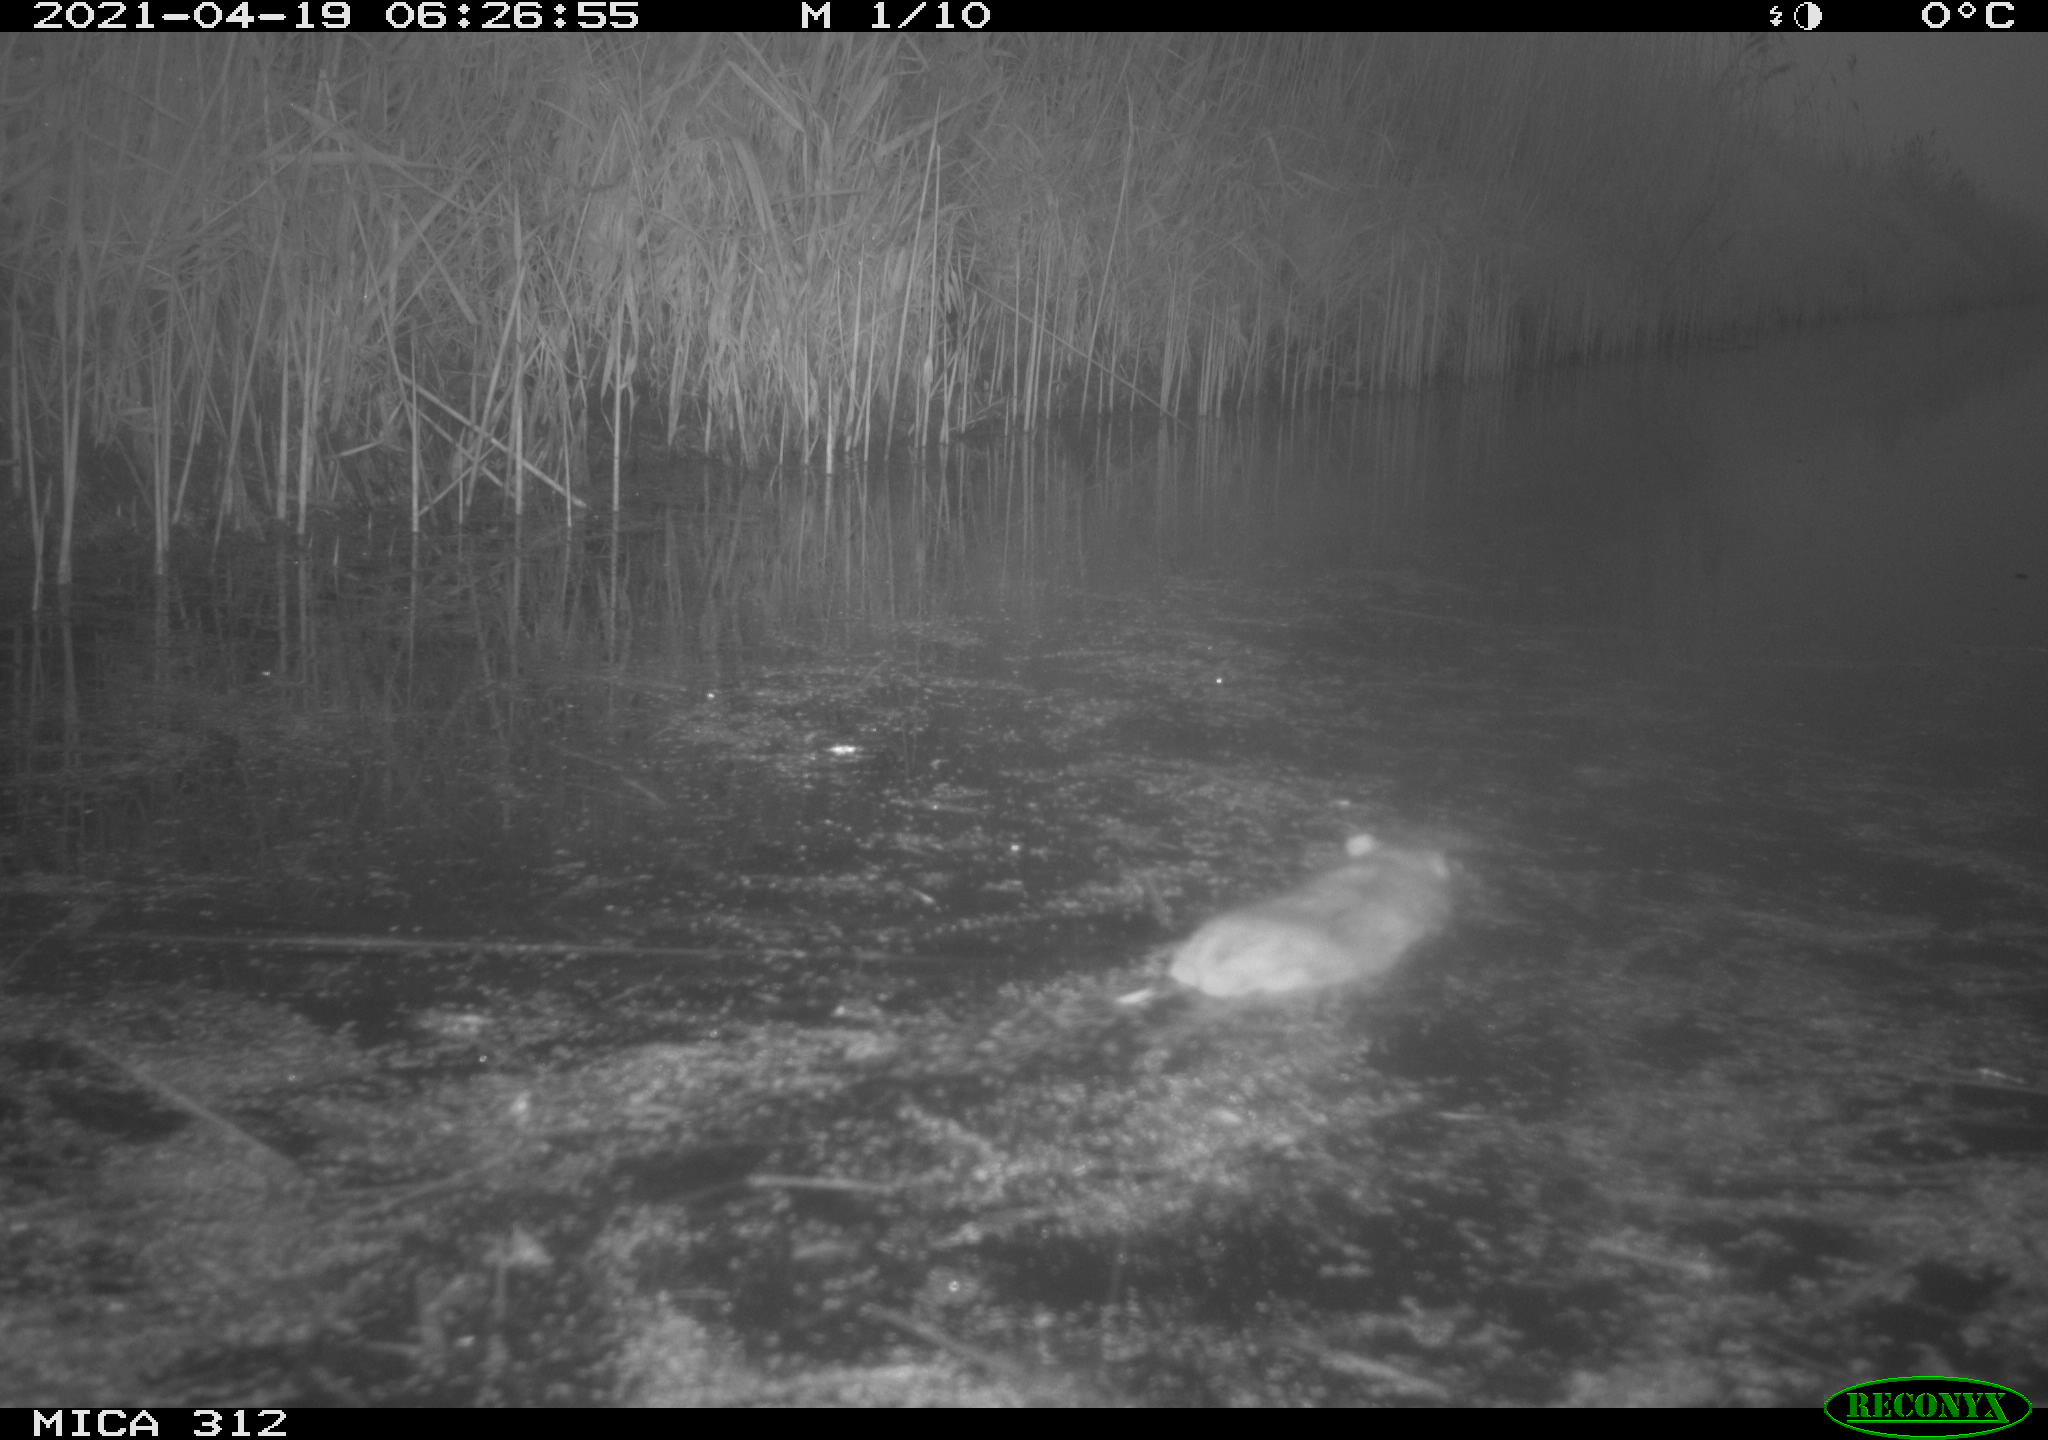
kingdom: Animalia
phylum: Chordata
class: Mammalia
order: Rodentia
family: Cricetidae
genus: Ondatra
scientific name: Ondatra zibethicus
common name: Muskrat
